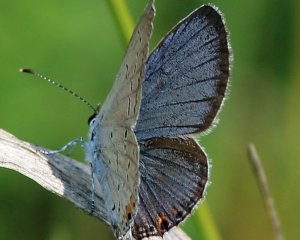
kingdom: Animalia
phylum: Arthropoda
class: Insecta
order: Lepidoptera
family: Lycaenidae
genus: Elkalyce
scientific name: Elkalyce comyntas
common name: Eastern Tailed-Blue
